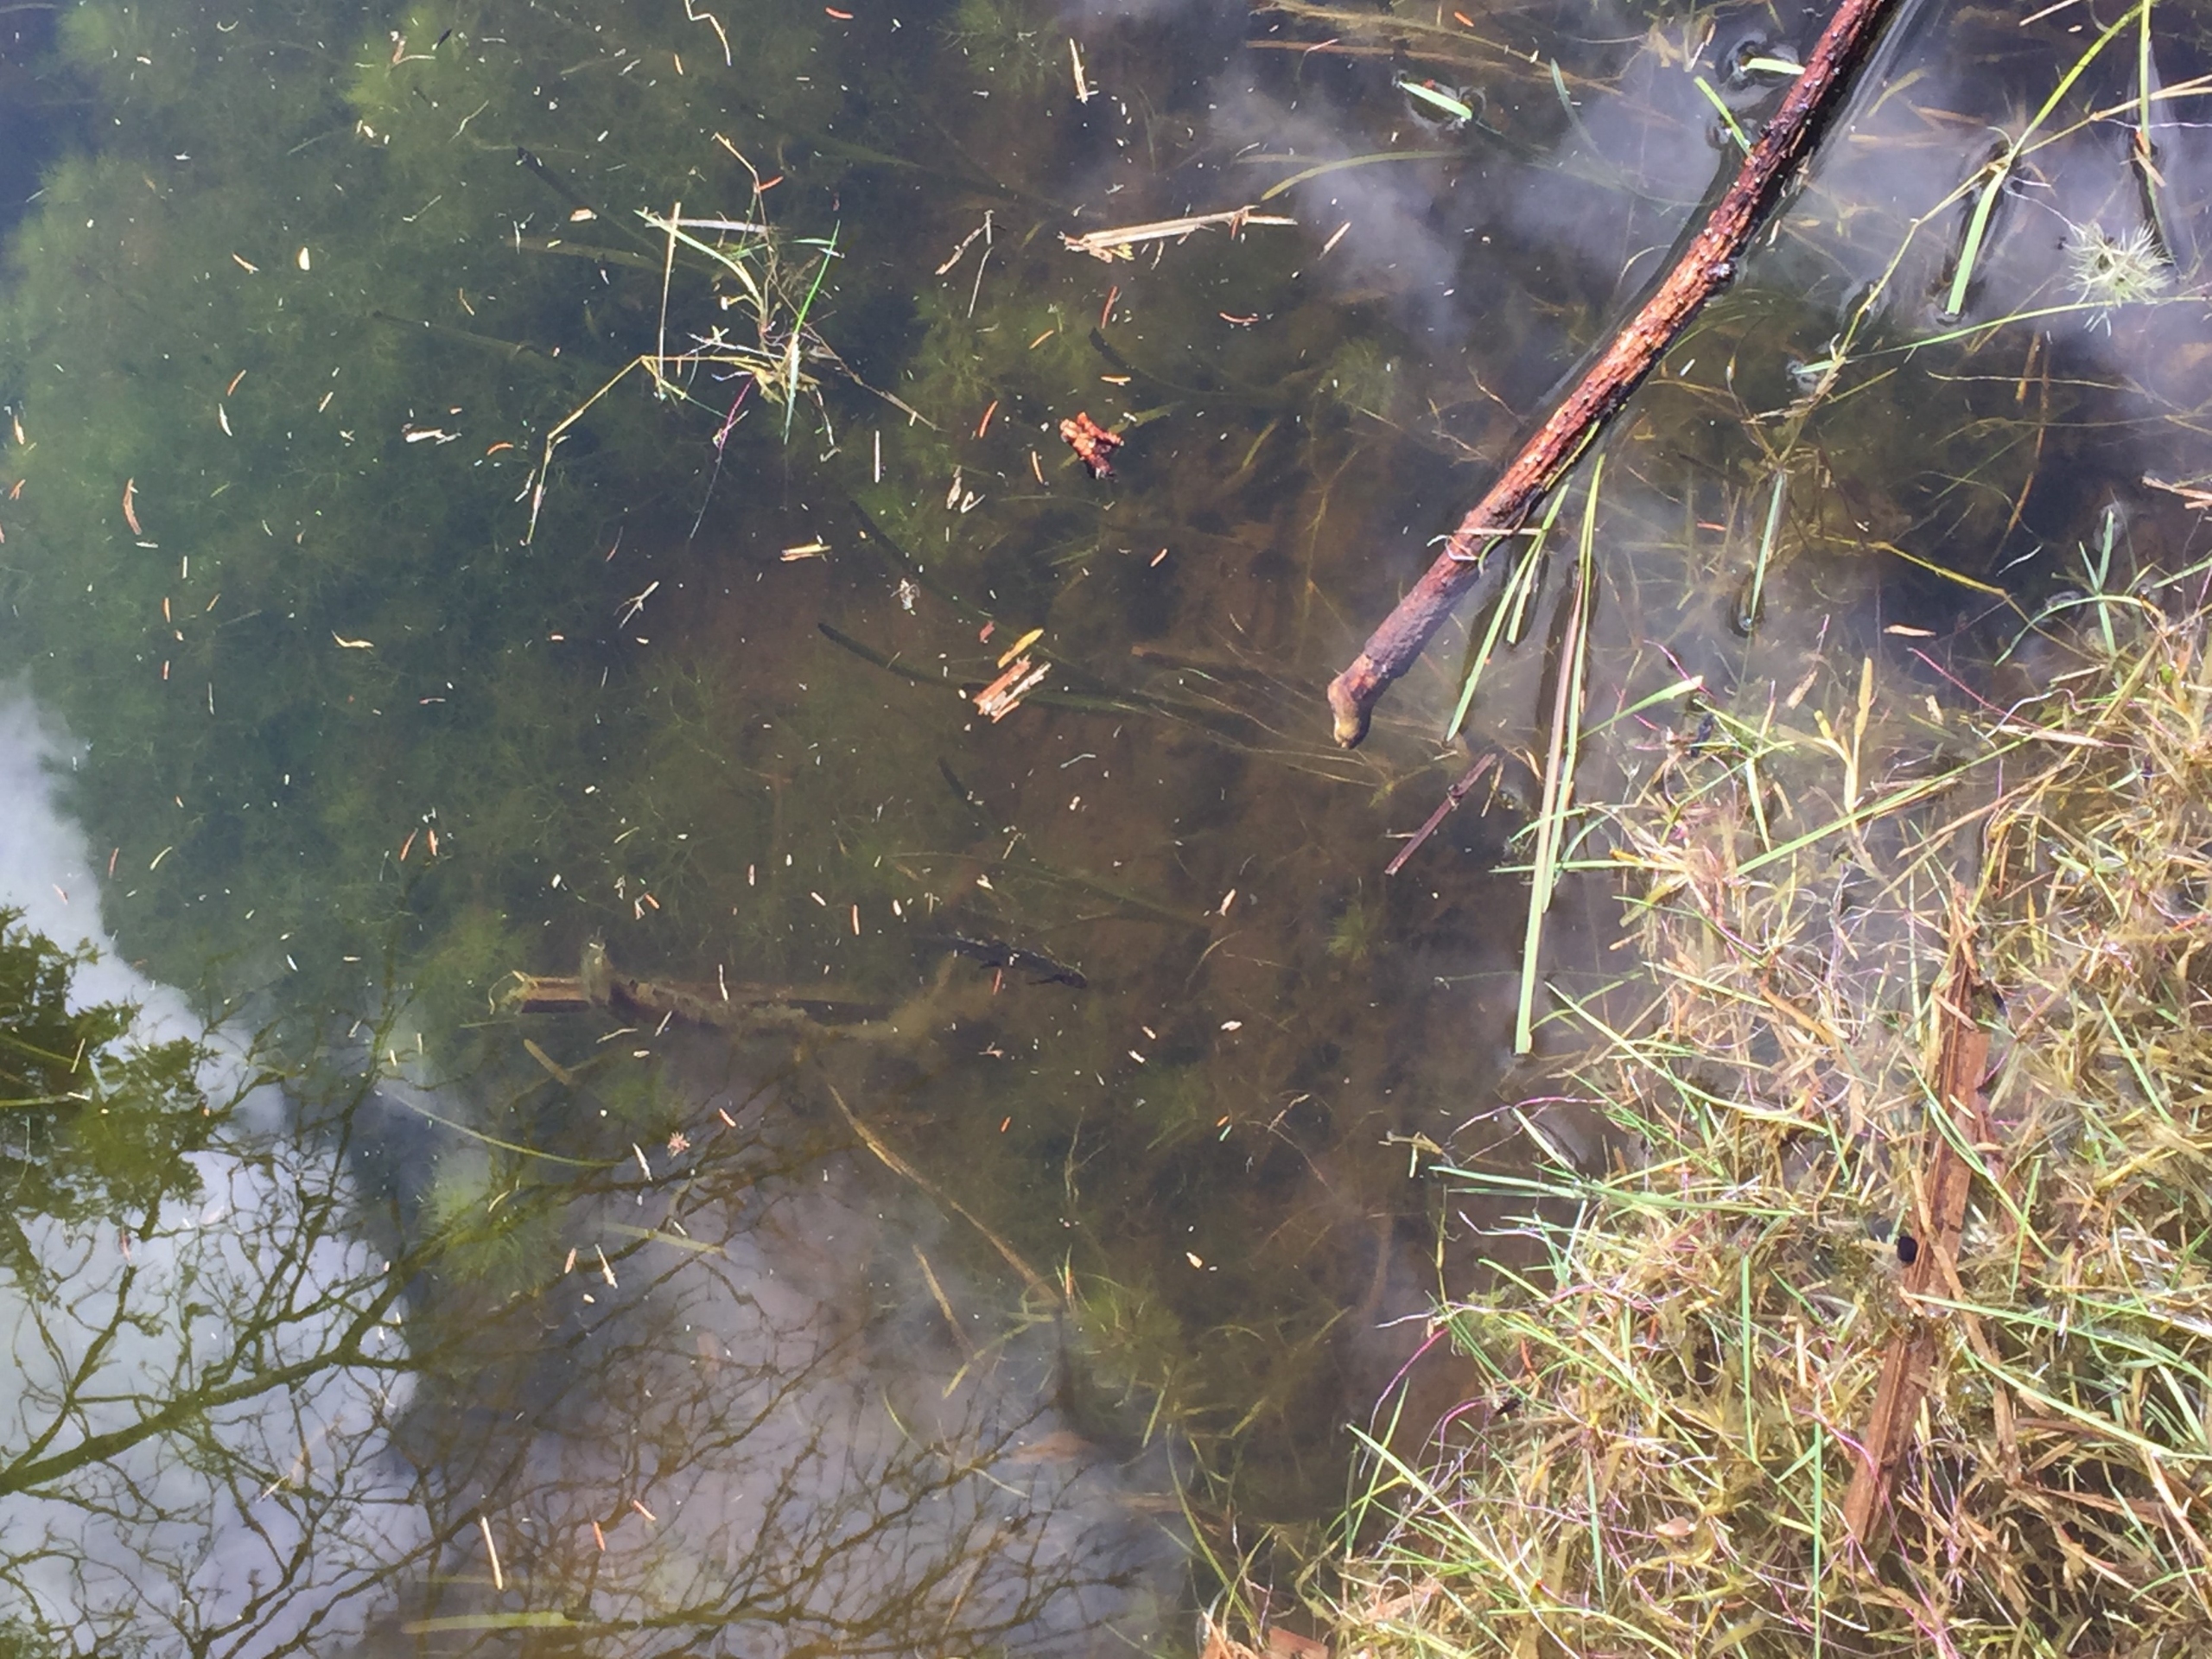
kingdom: Animalia
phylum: Chordata
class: Amphibia
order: Caudata
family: Salamandridae
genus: Lissotriton
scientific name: Lissotriton vulgaris
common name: Lille vandsalamander
